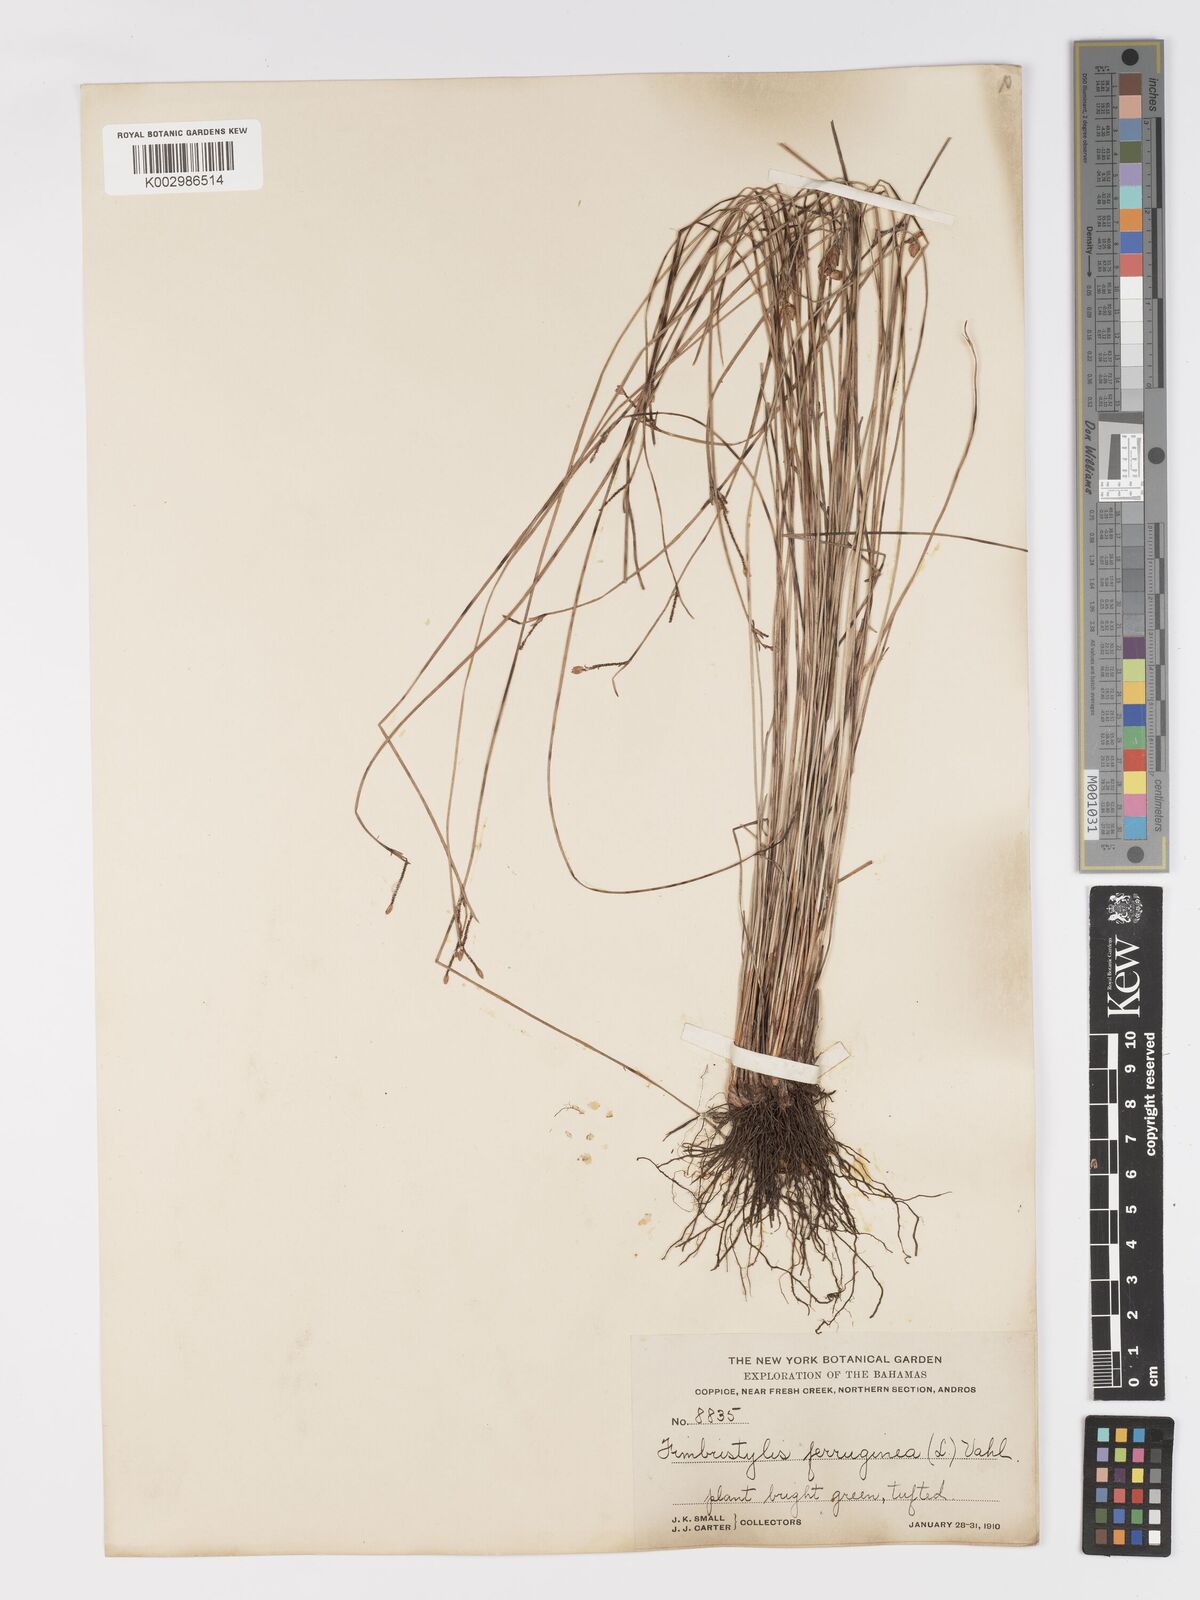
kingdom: Plantae
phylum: Tracheophyta
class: Liliopsida
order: Poales
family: Cyperaceae
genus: Fimbristylis
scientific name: Fimbristylis ferruginea
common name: West indian fimbry
